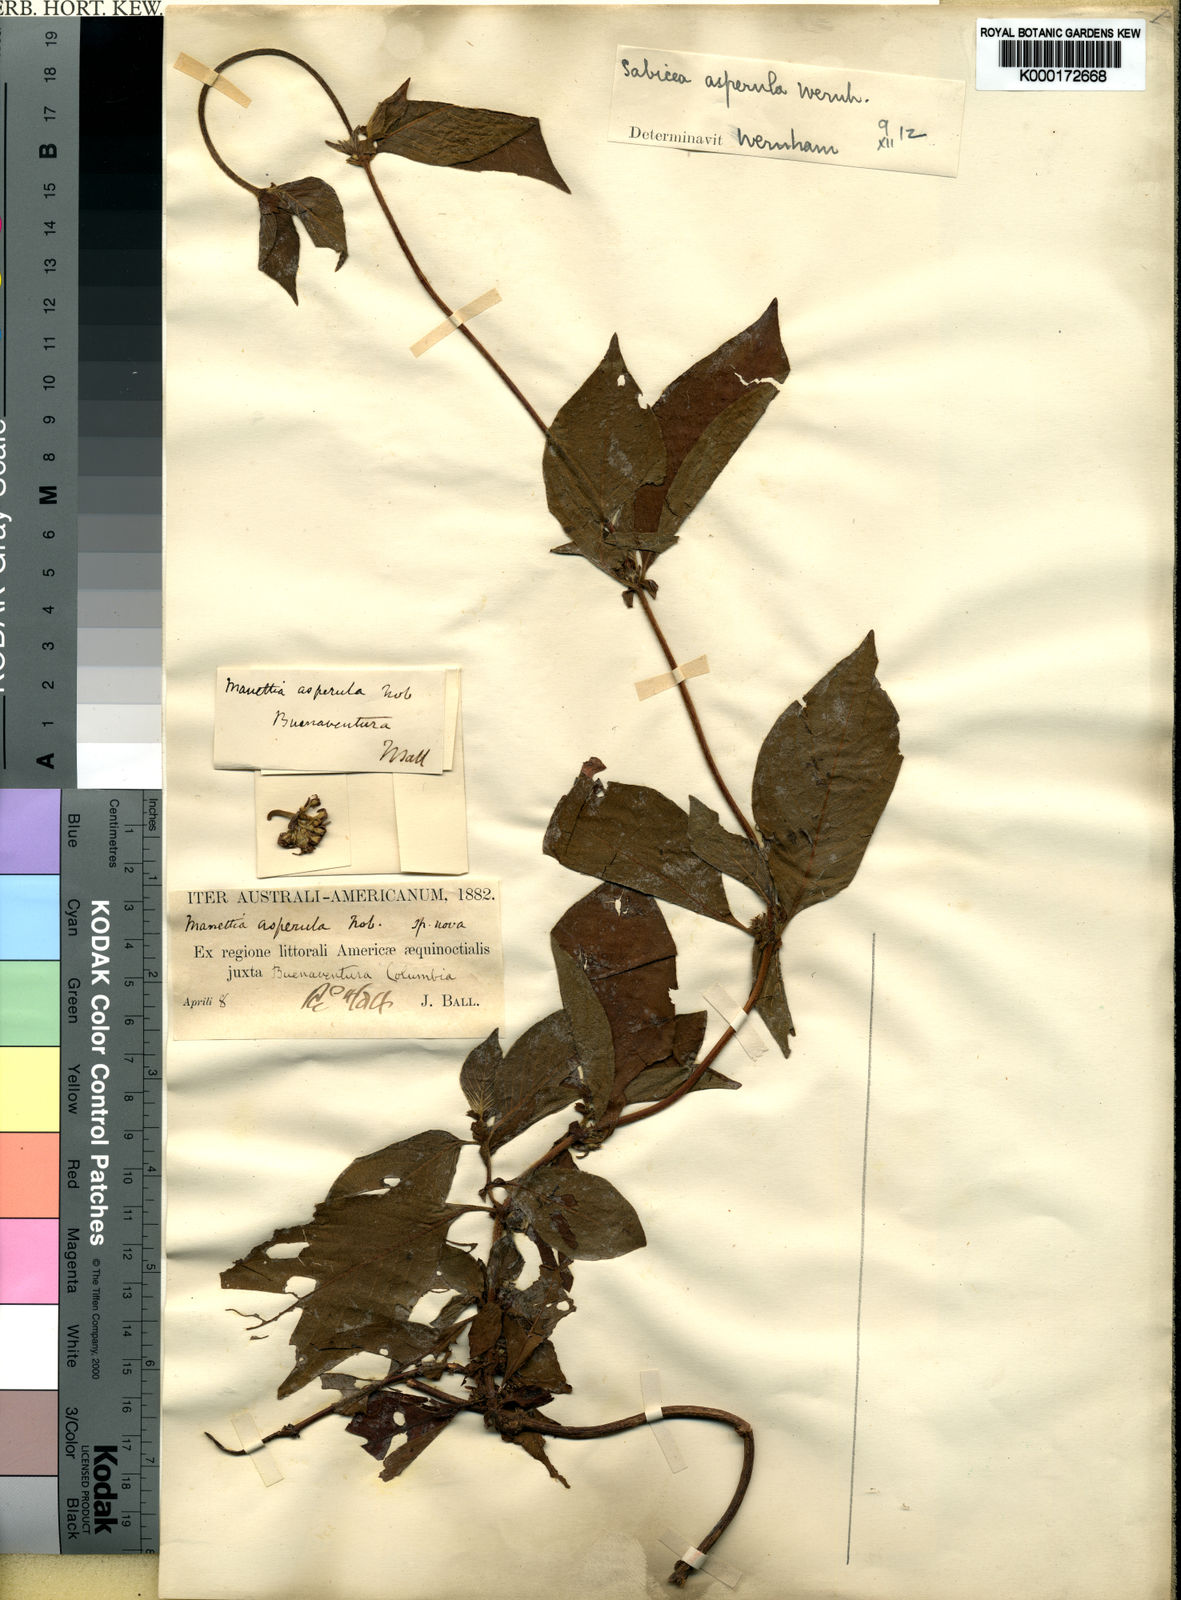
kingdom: Plantae
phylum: Tracheophyta
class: Magnoliopsida
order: Gentianales
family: Rubiaceae
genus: Sabicea
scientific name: Sabicea panamensis
